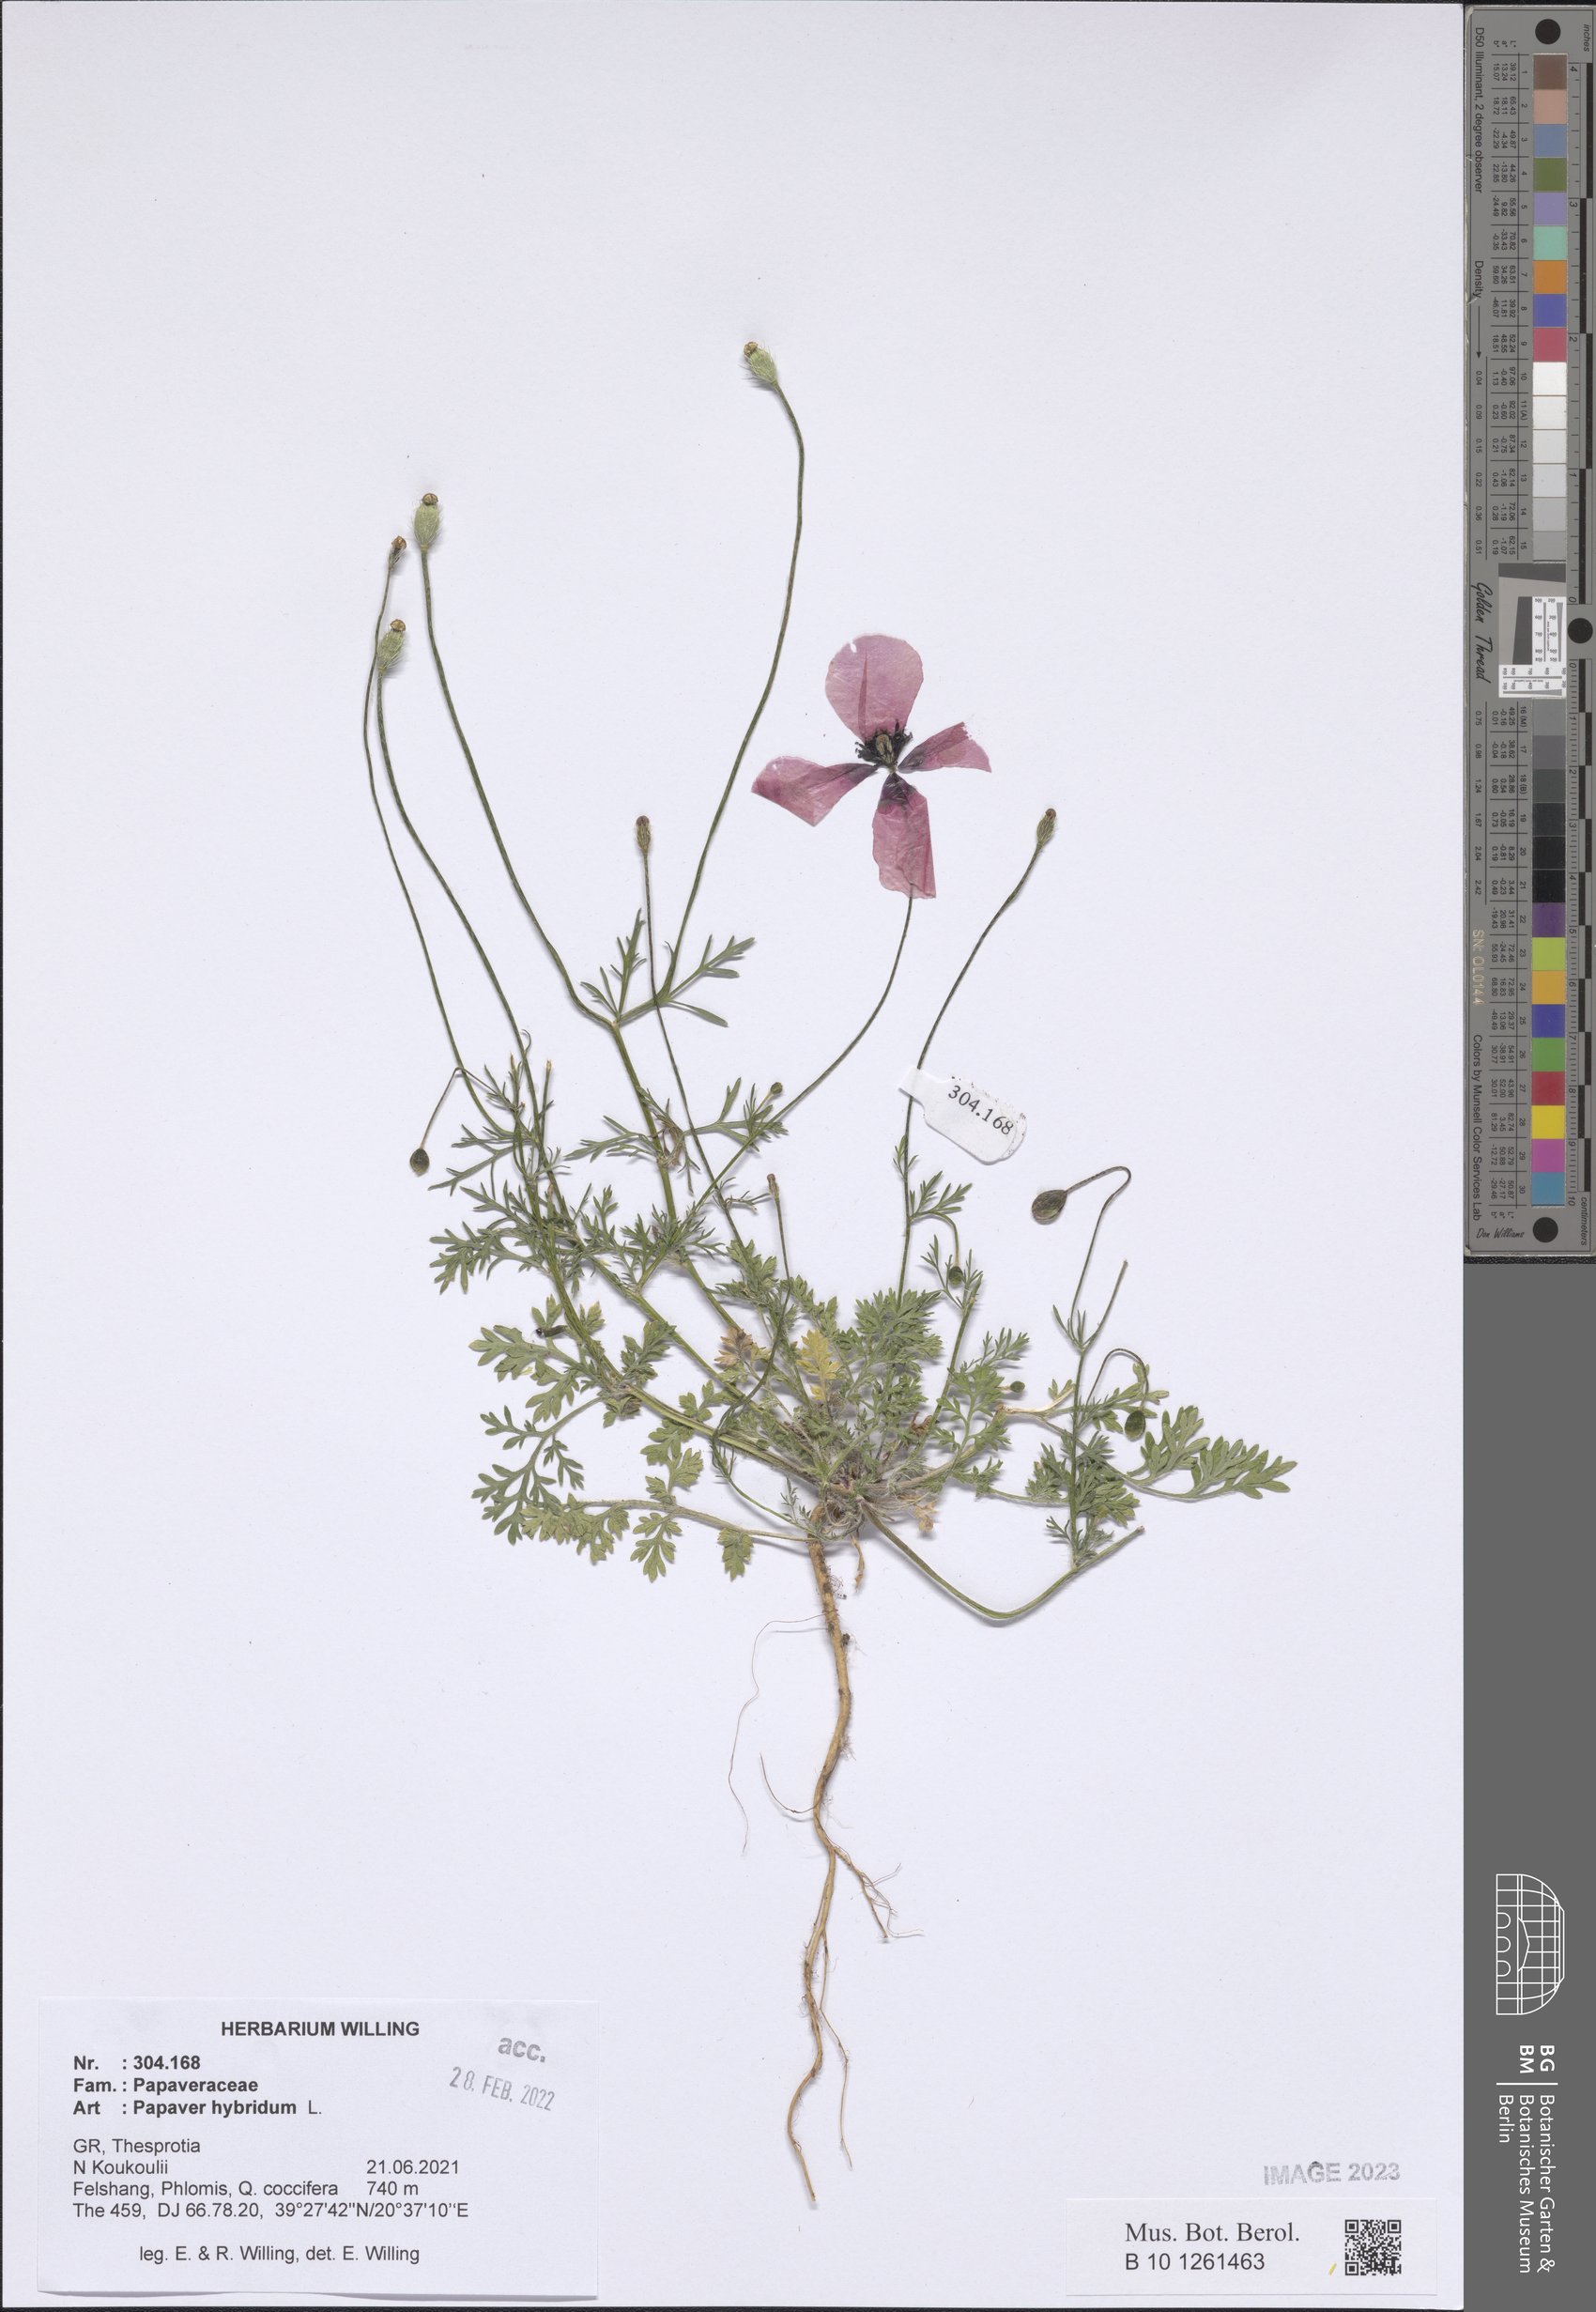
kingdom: Plantae
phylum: Tracheophyta
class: Magnoliopsida
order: Ranunculales
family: Papaveraceae
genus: Roemeria
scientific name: Roemeria hispida
